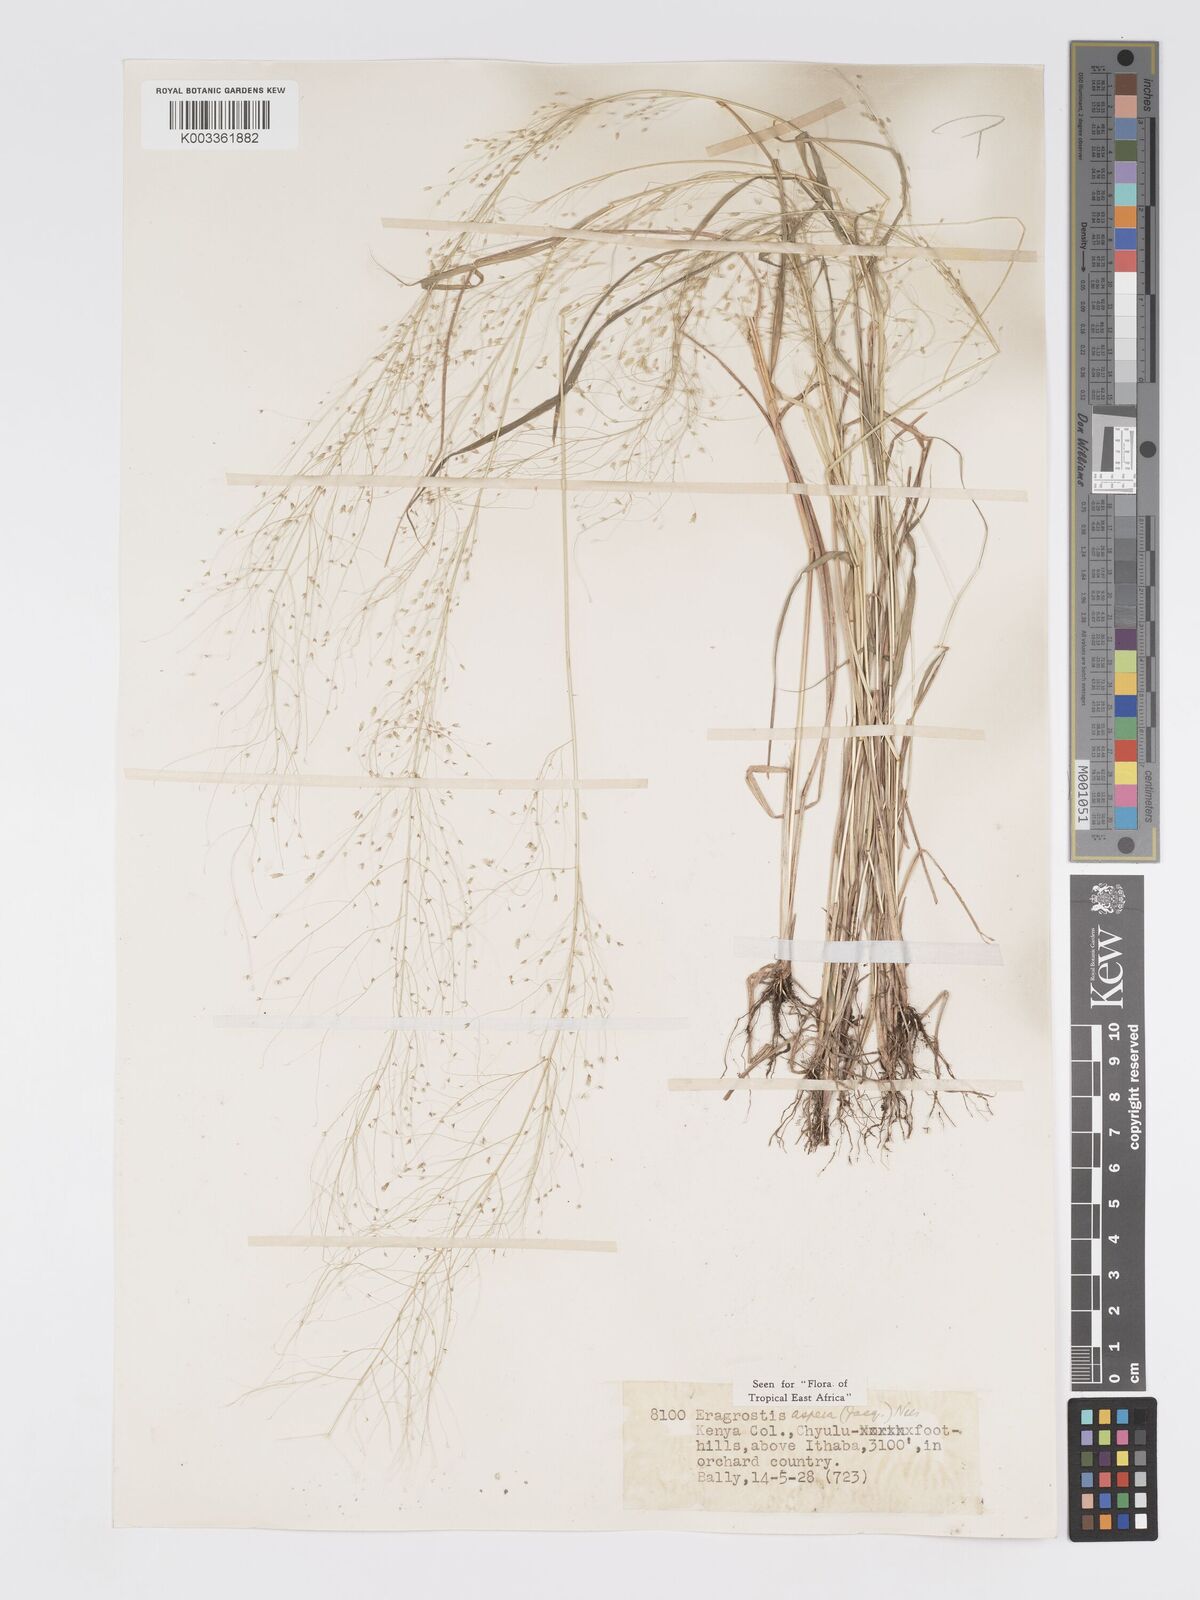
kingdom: Plantae
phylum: Tracheophyta
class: Liliopsida
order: Poales
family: Poaceae
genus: Eragrostis
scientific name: Eragrostis aspera
